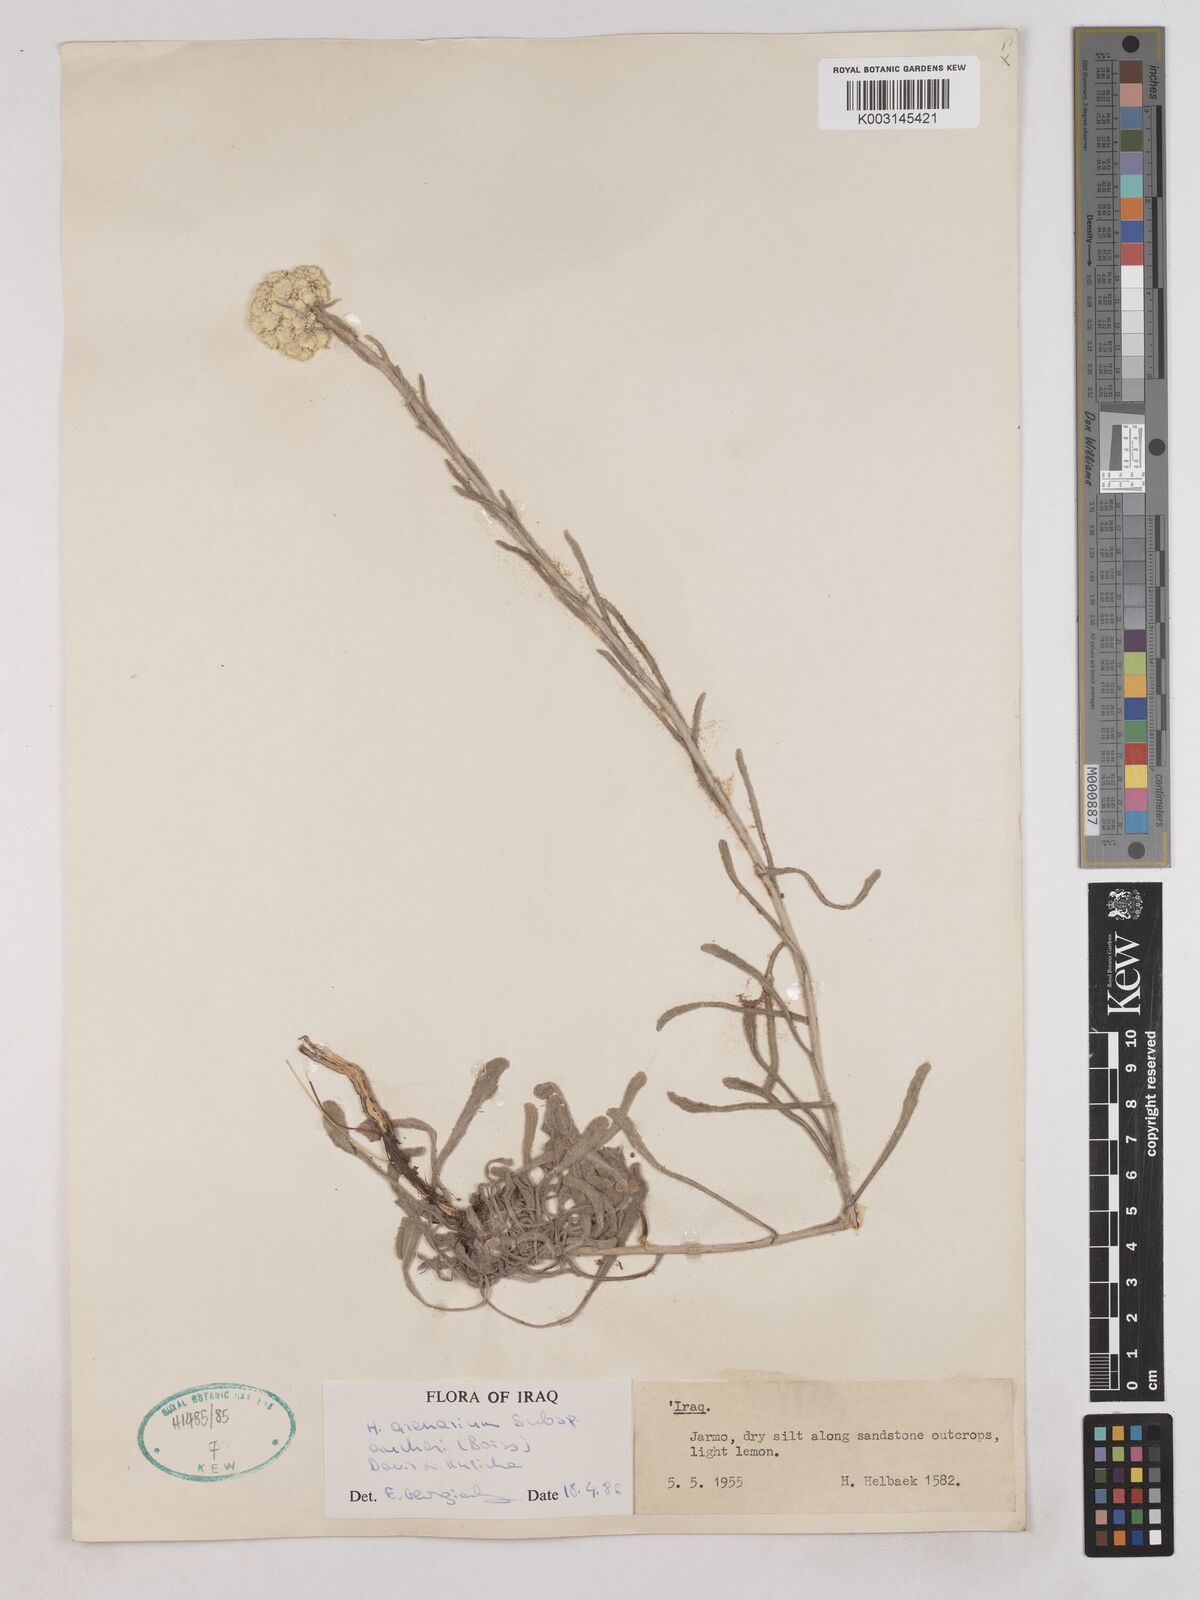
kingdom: Plantae
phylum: Tracheophyta
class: Magnoliopsida
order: Asterales
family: Asteraceae
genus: Helichrysum
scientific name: Helichrysum arenarium
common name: Strawflower
